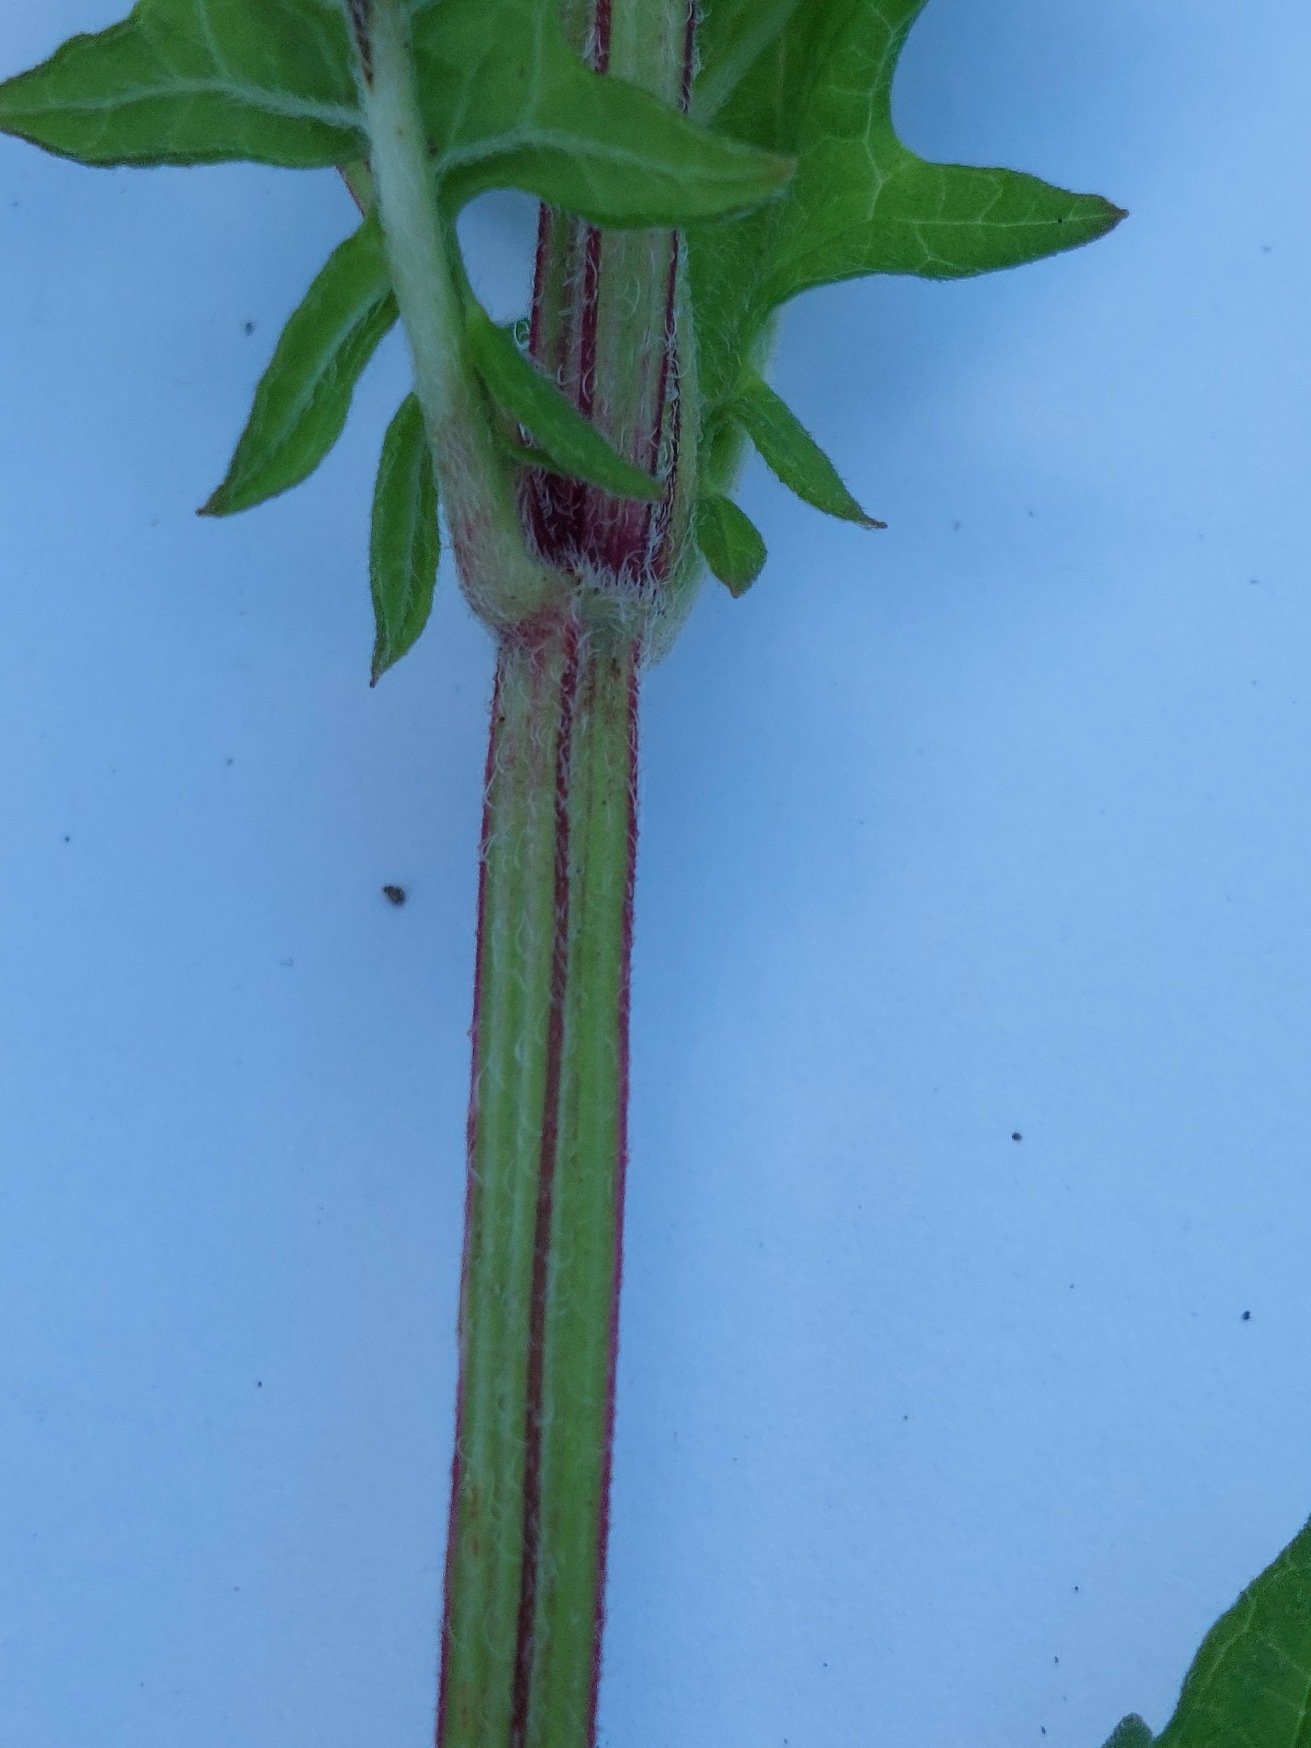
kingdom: Plantae
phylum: Tracheophyta
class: Magnoliopsida
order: Lamiales
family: Lamiaceae
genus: Lycopus
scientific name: Lycopus europaeus
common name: Sværtevæld
